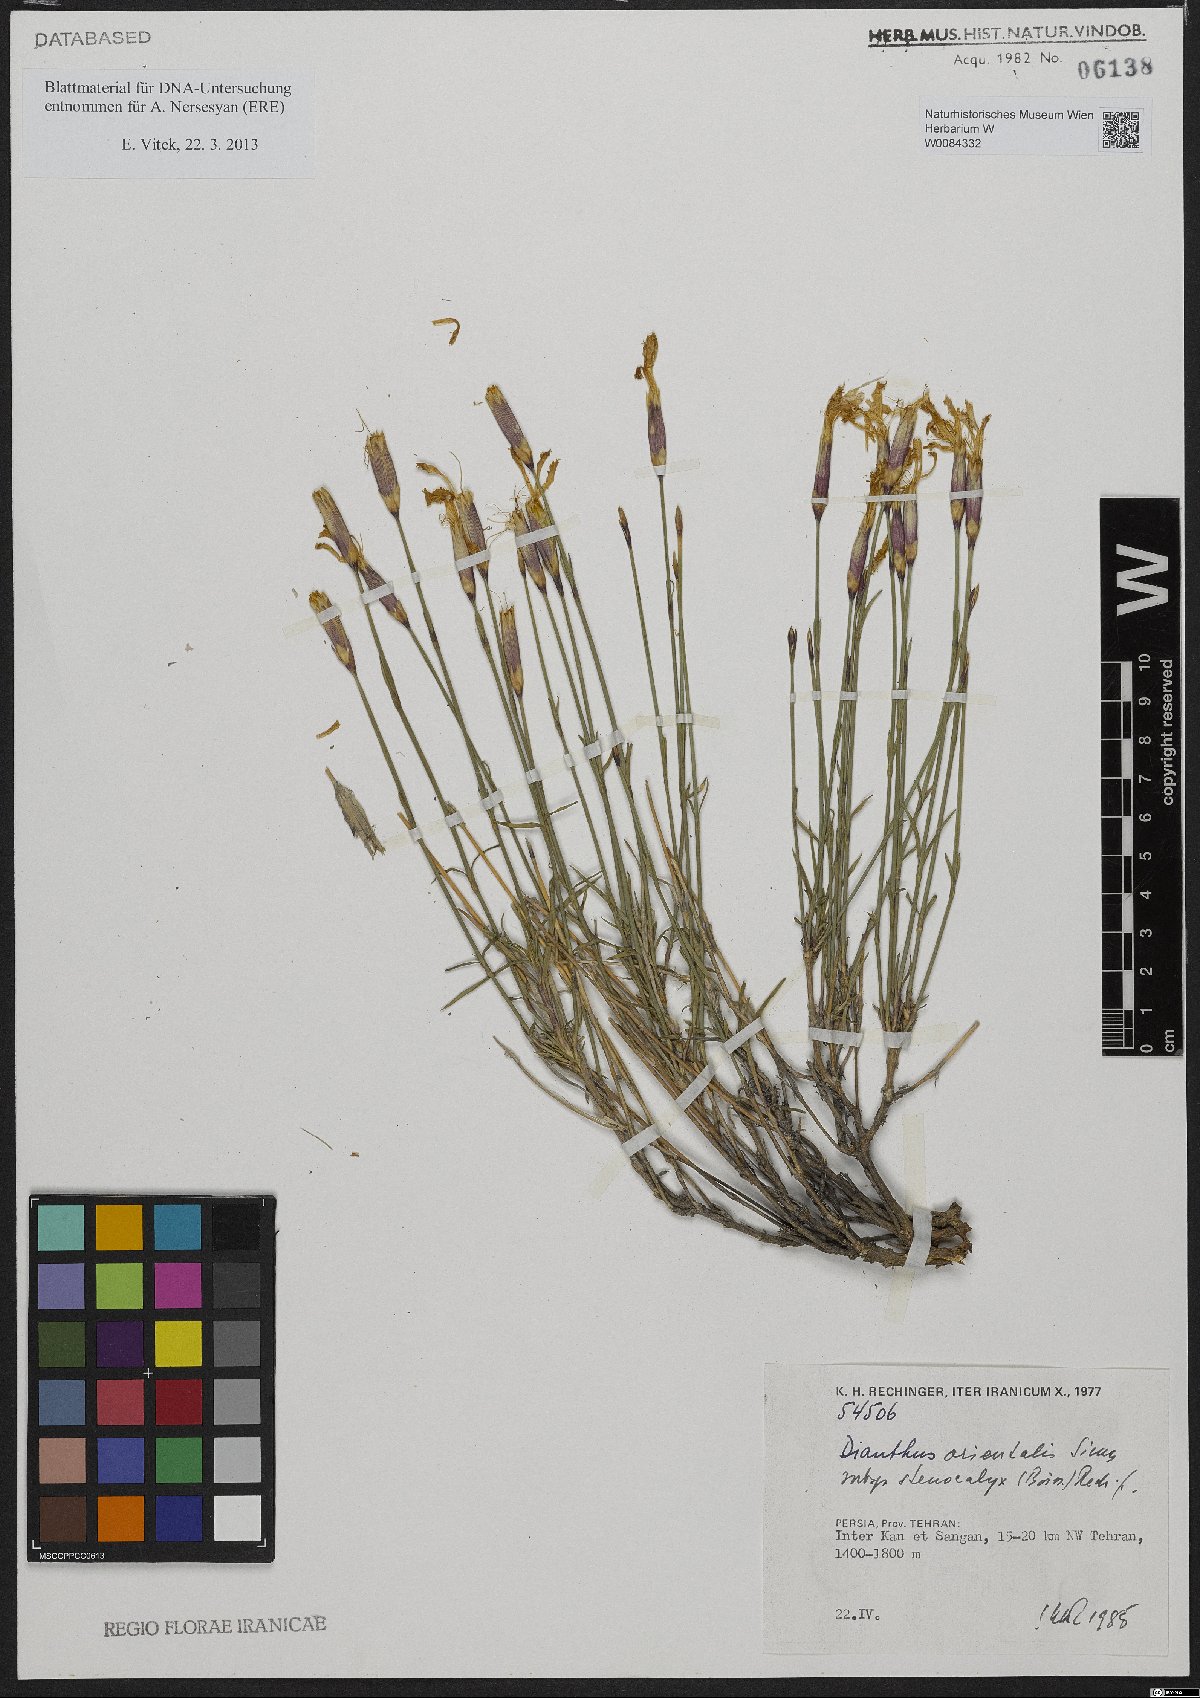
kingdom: Plantae
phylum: Tracheophyta
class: Magnoliopsida
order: Caryophyllales
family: Caryophyllaceae
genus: Dianthus
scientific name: Dianthus orientalis
